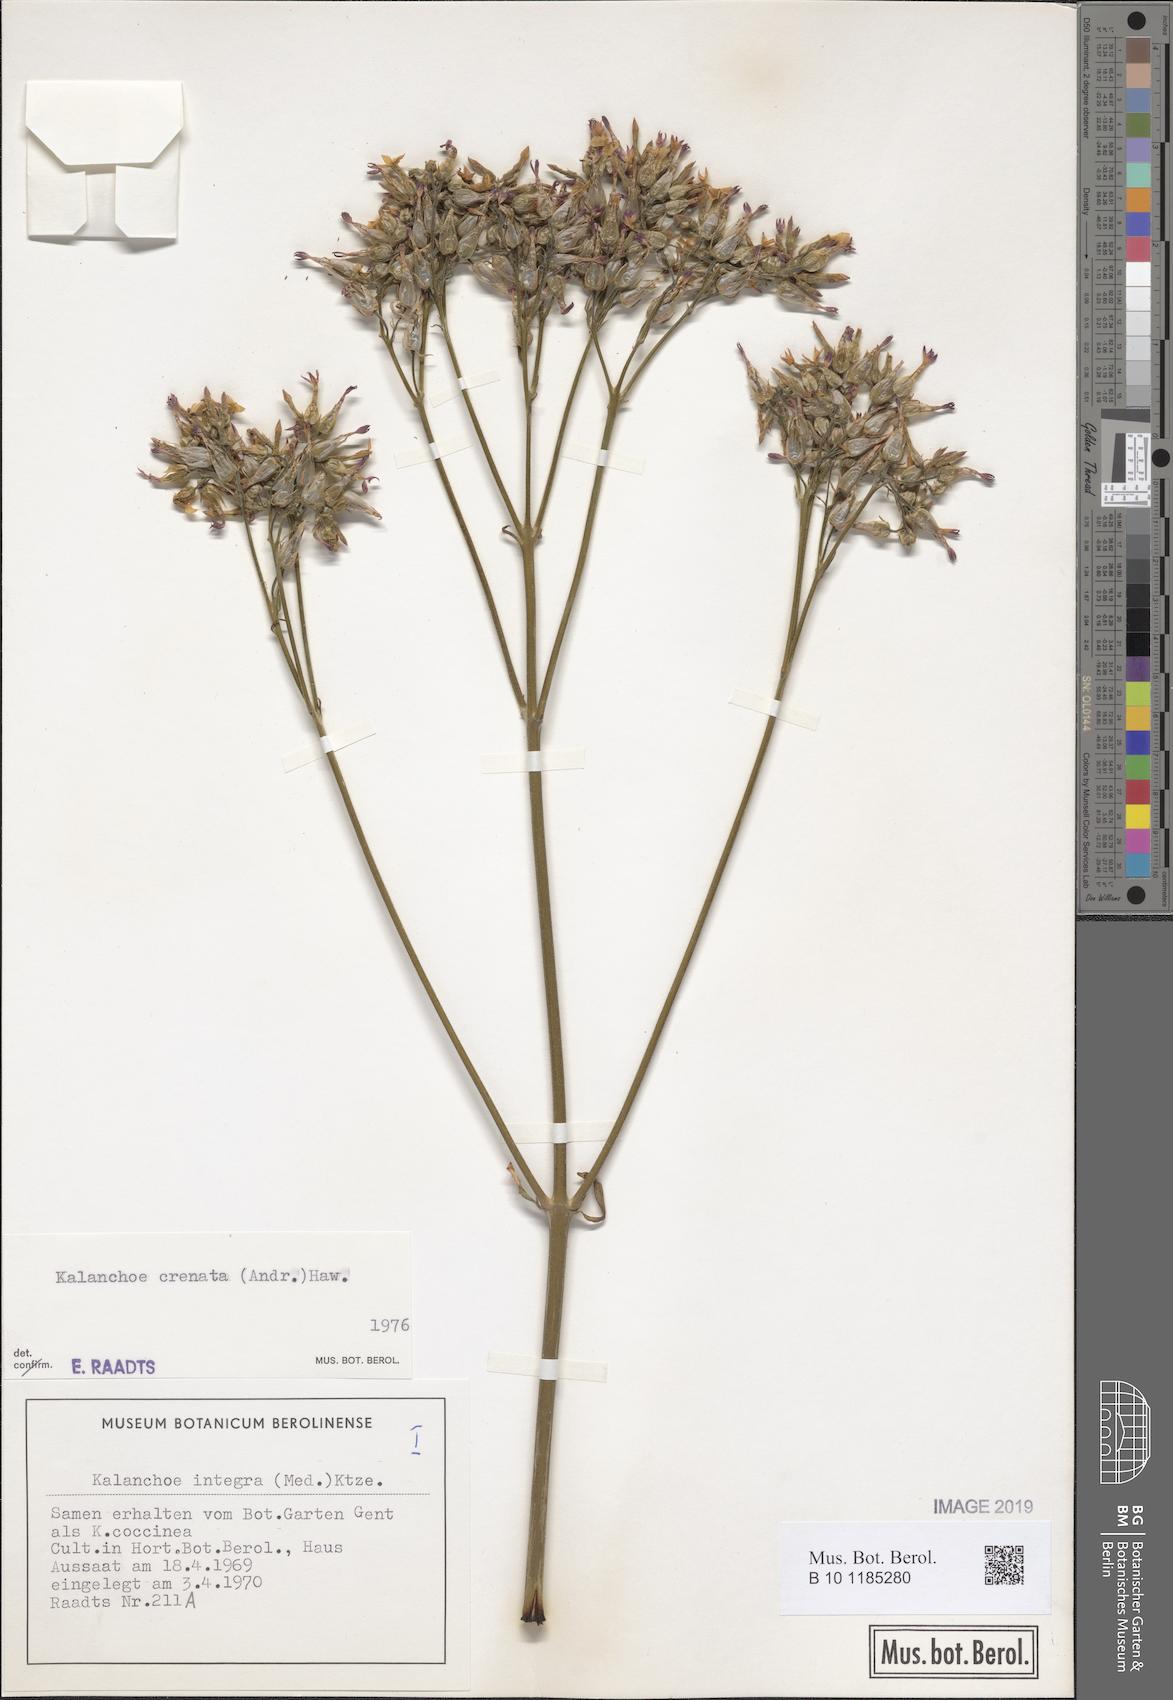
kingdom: Plantae
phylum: Tracheophyta
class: Magnoliopsida
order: Saxifragales
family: Crassulaceae
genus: Kalanchoe
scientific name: Kalanchoe crenata
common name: Neverdie
